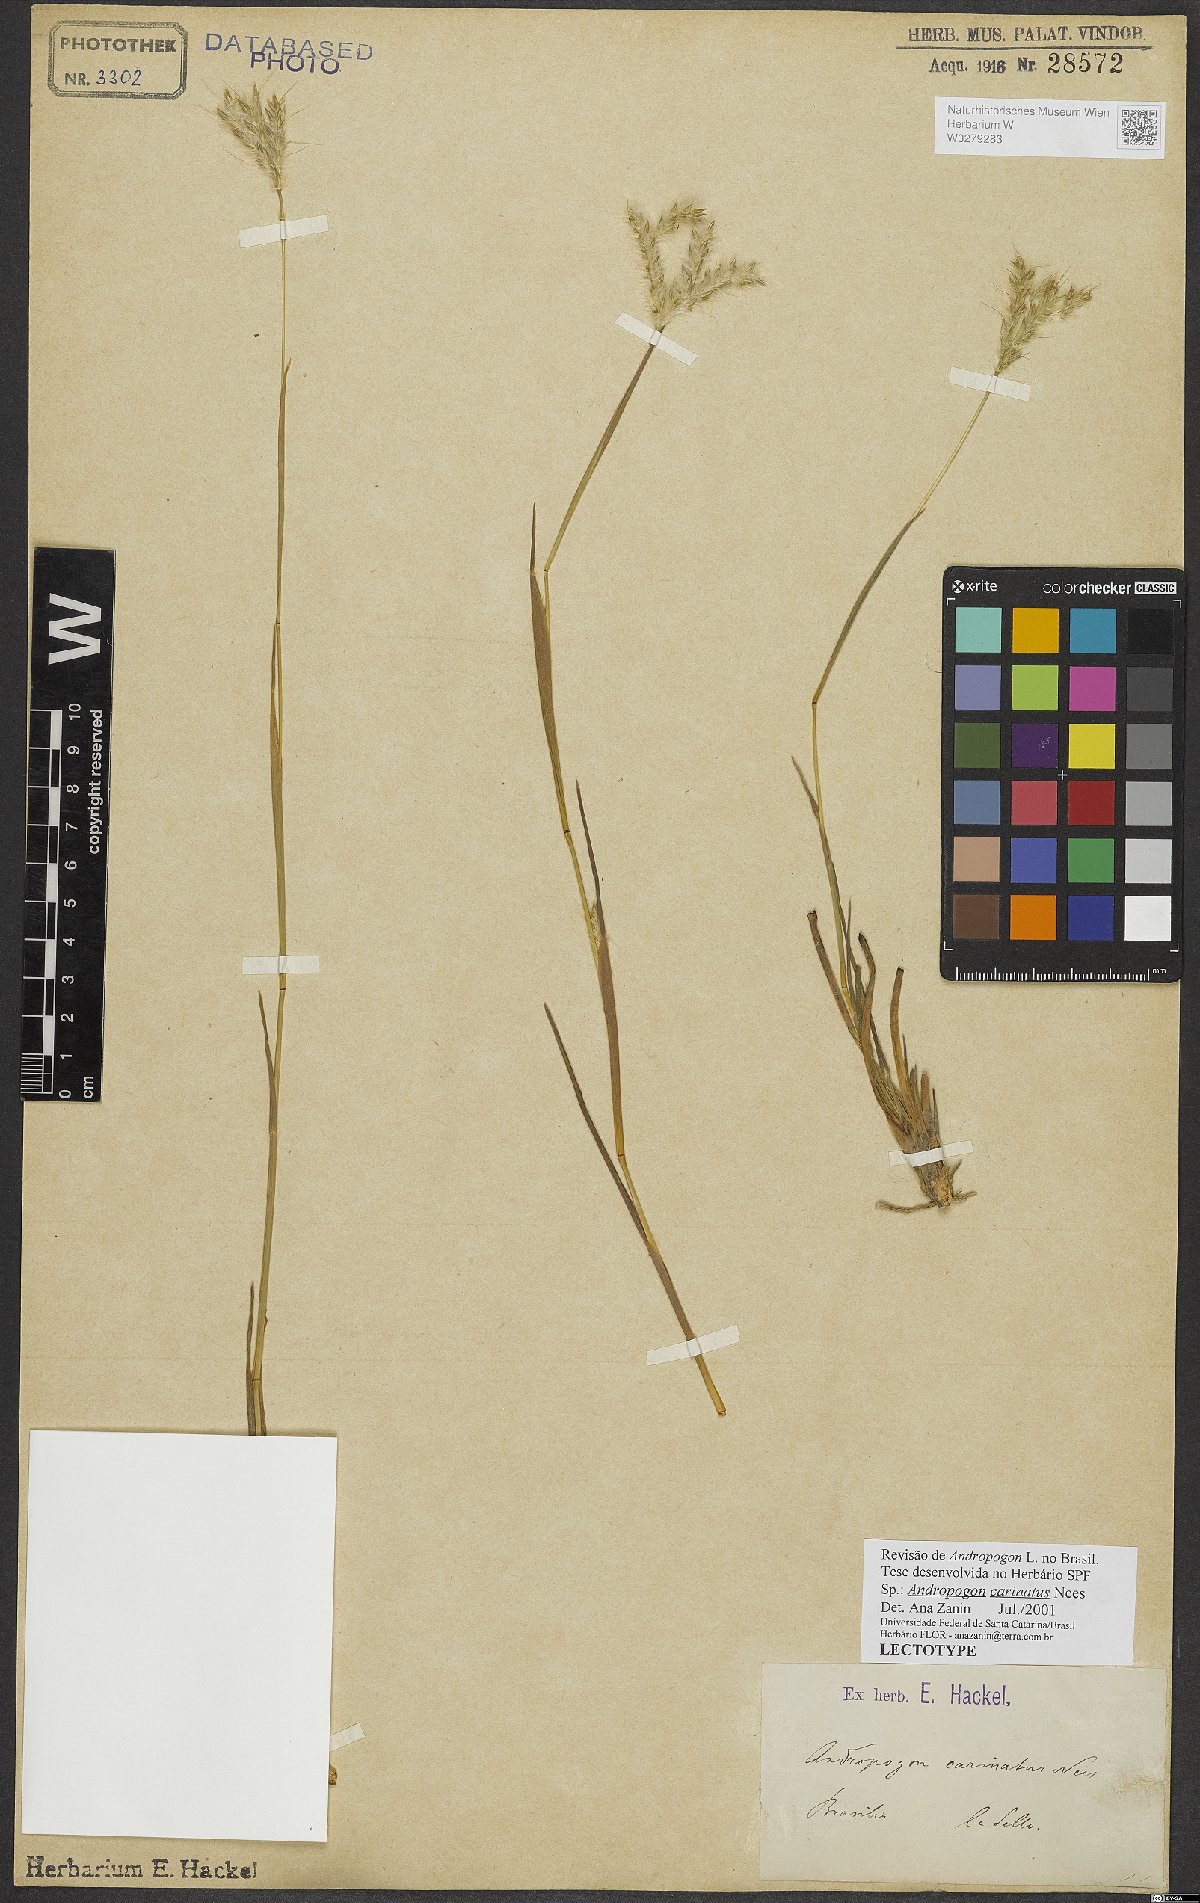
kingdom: Plantae
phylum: Tracheophyta
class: Liliopsida
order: Poales
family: Poaceae
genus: Andropogon
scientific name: Andropogon carinatus
